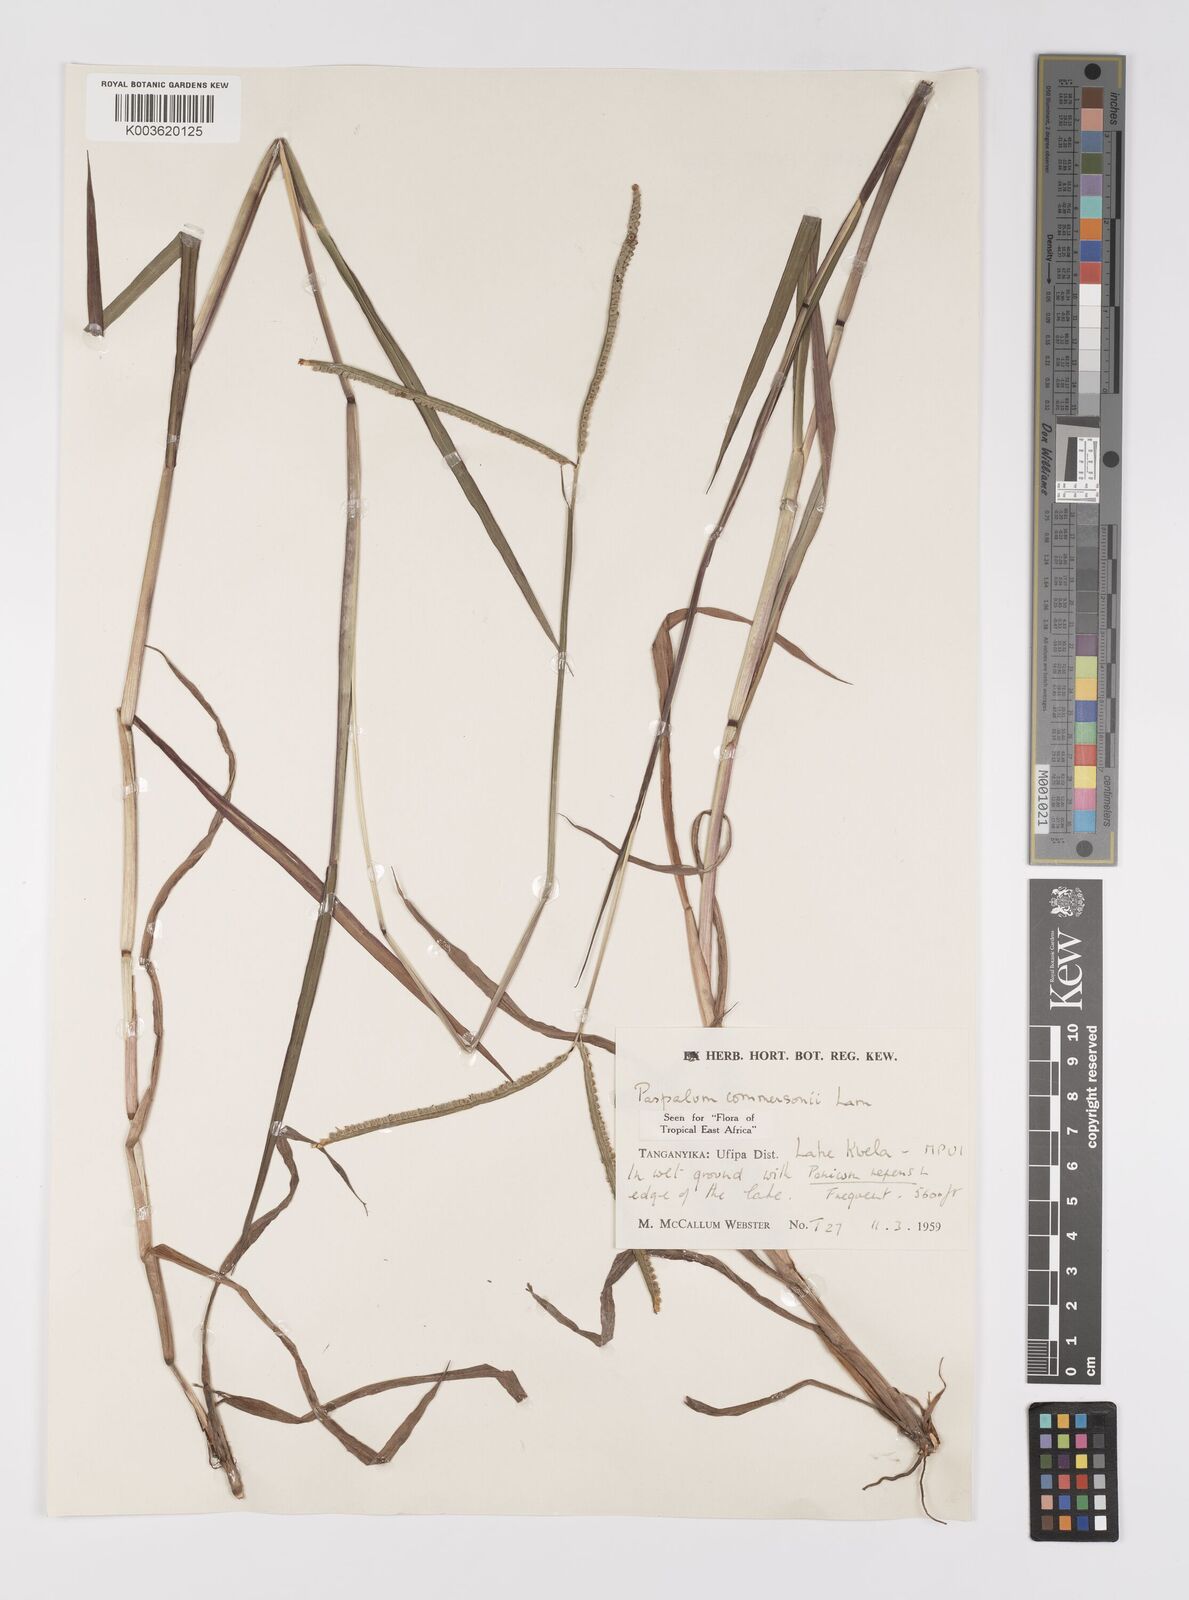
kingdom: Plantae
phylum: Tracheophyta
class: Liliopsida
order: Poales
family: Poaceae
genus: Paspalum
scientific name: Paspalum scrobiculatum
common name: Kodo millet
